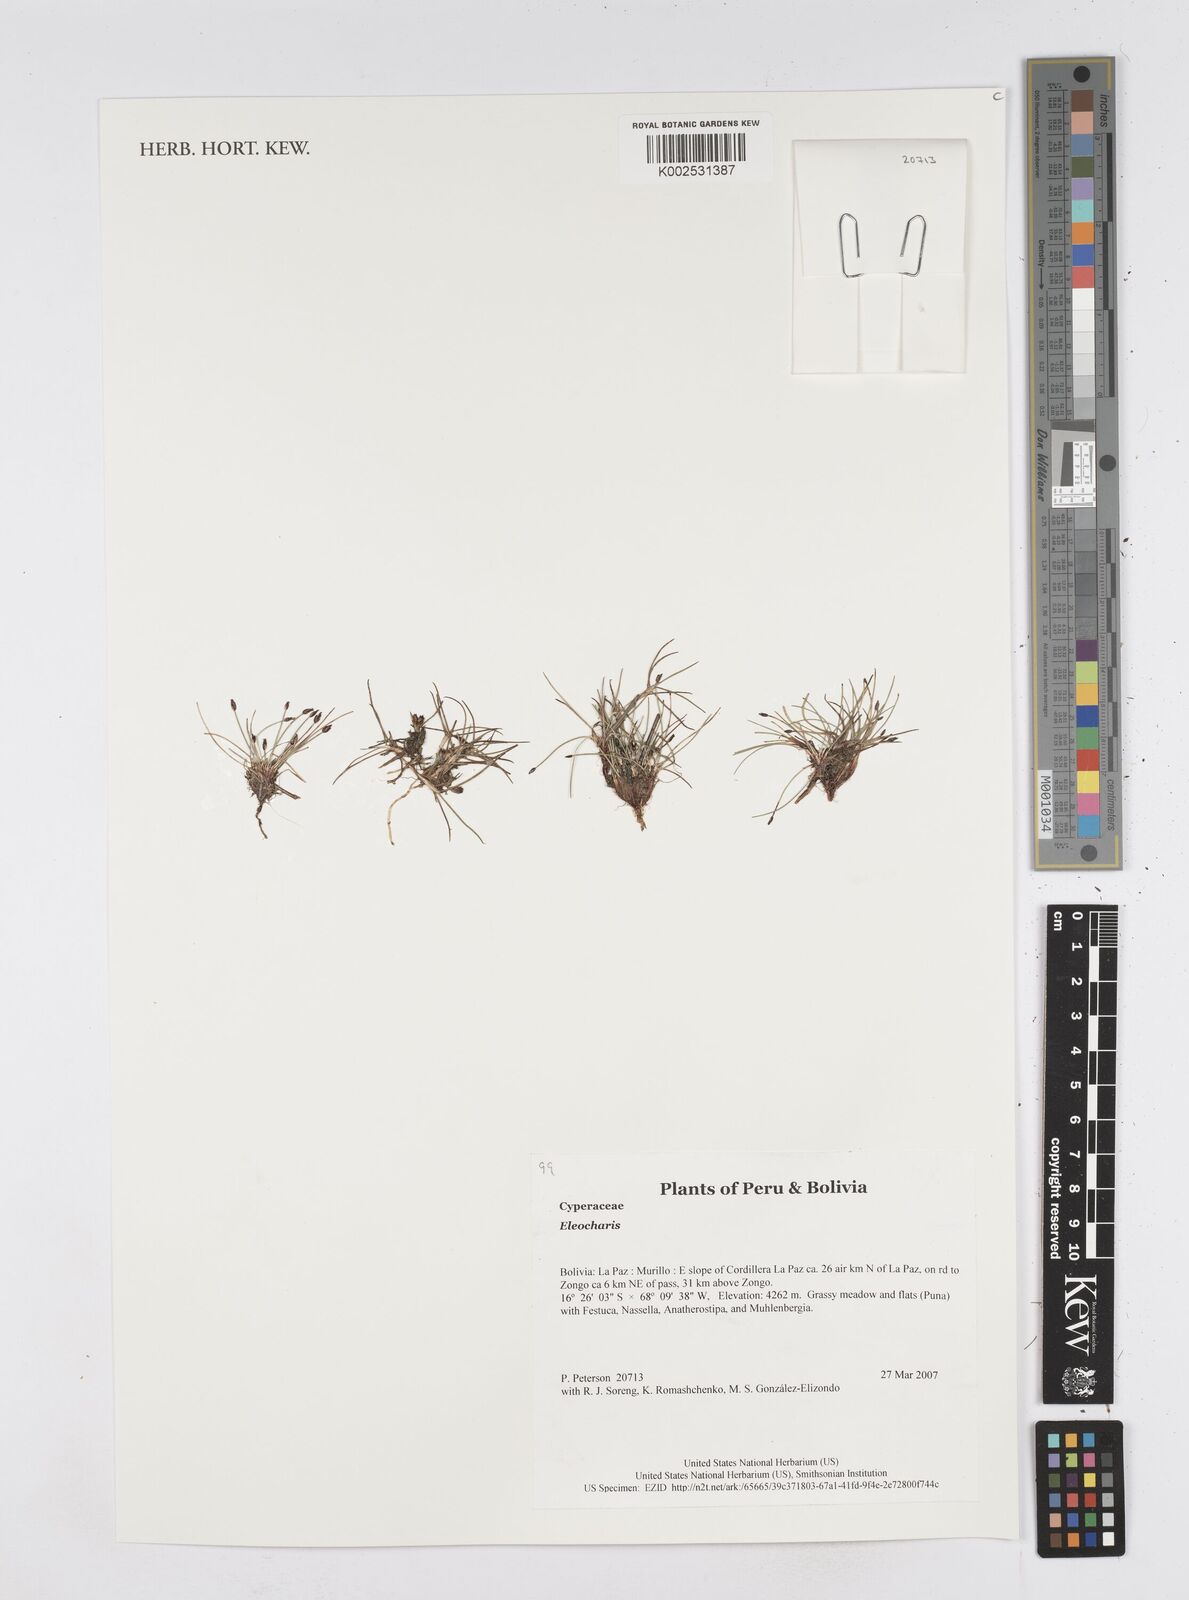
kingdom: Plantae
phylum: Tracheophyta
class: Liliopsida
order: Poales
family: Cyperaceae
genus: Eleocharis
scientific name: Eleocharis
